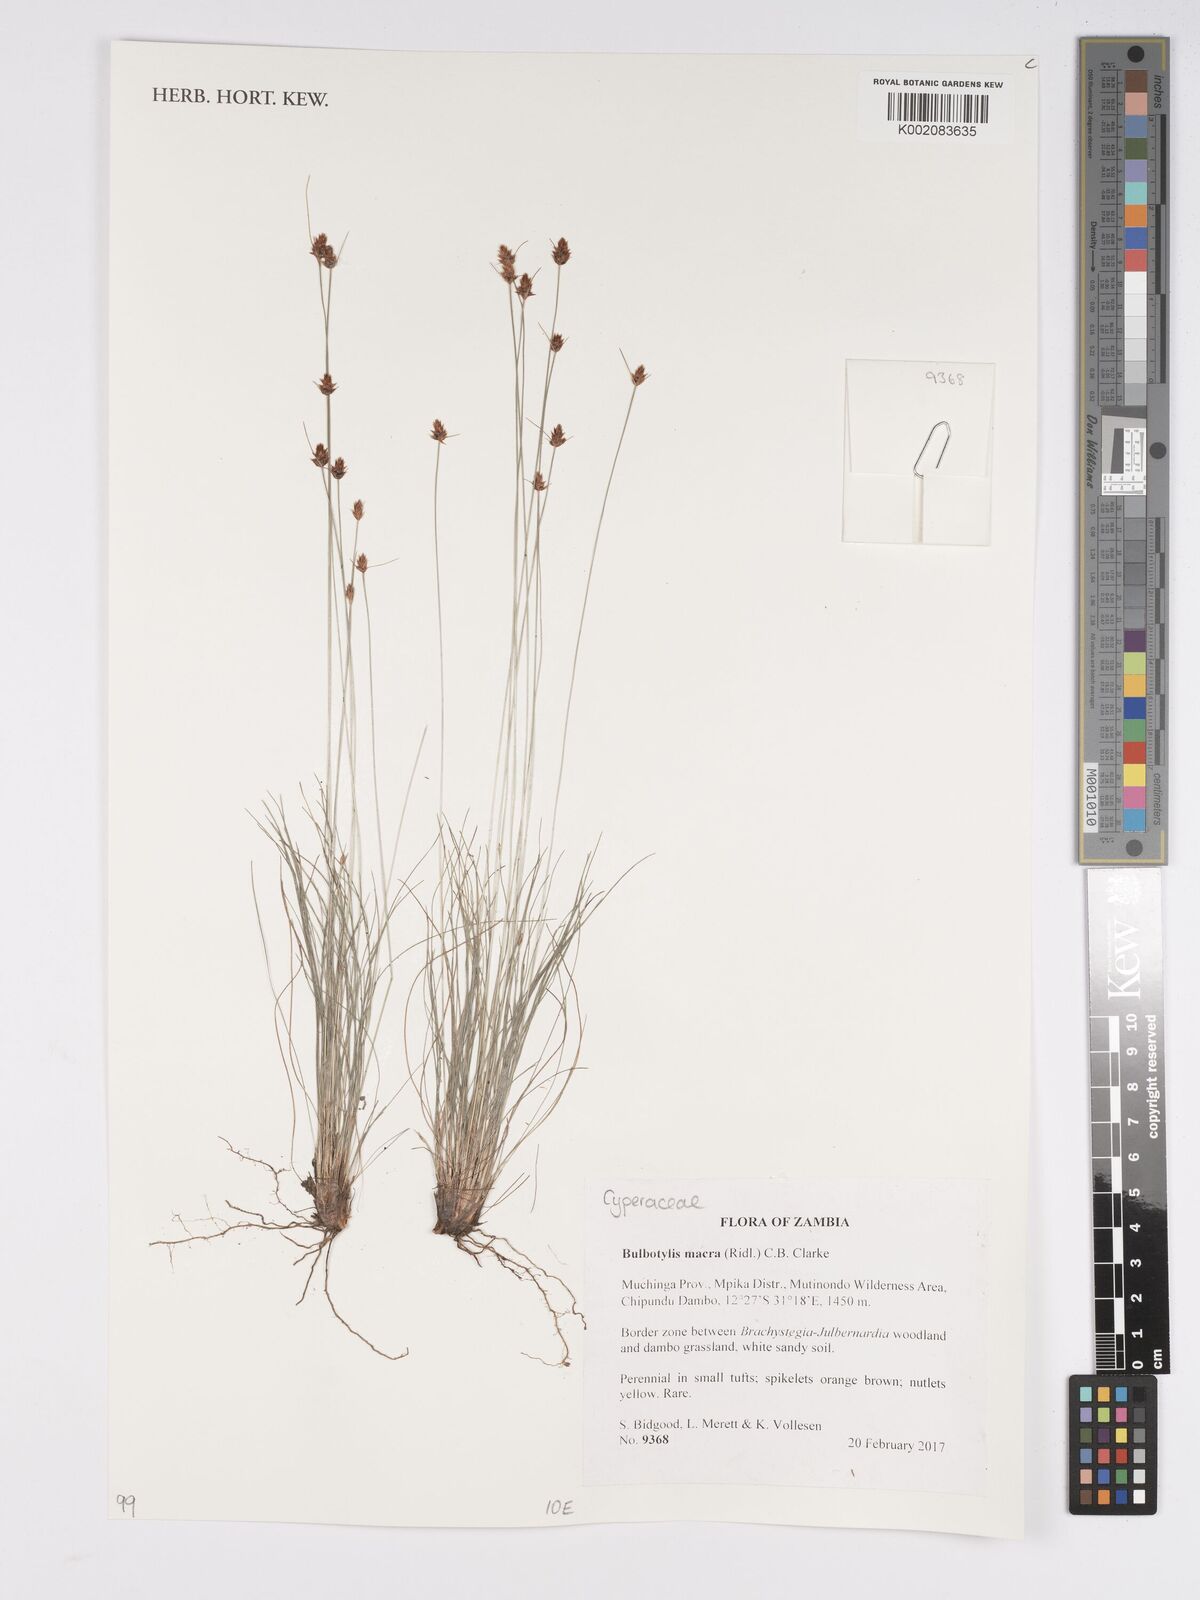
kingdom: Plantae
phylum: Tracheophyta
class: Liliopsida
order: Poales
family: Cyperaceae
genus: Bulbostylis
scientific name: Bulbostylis macra
